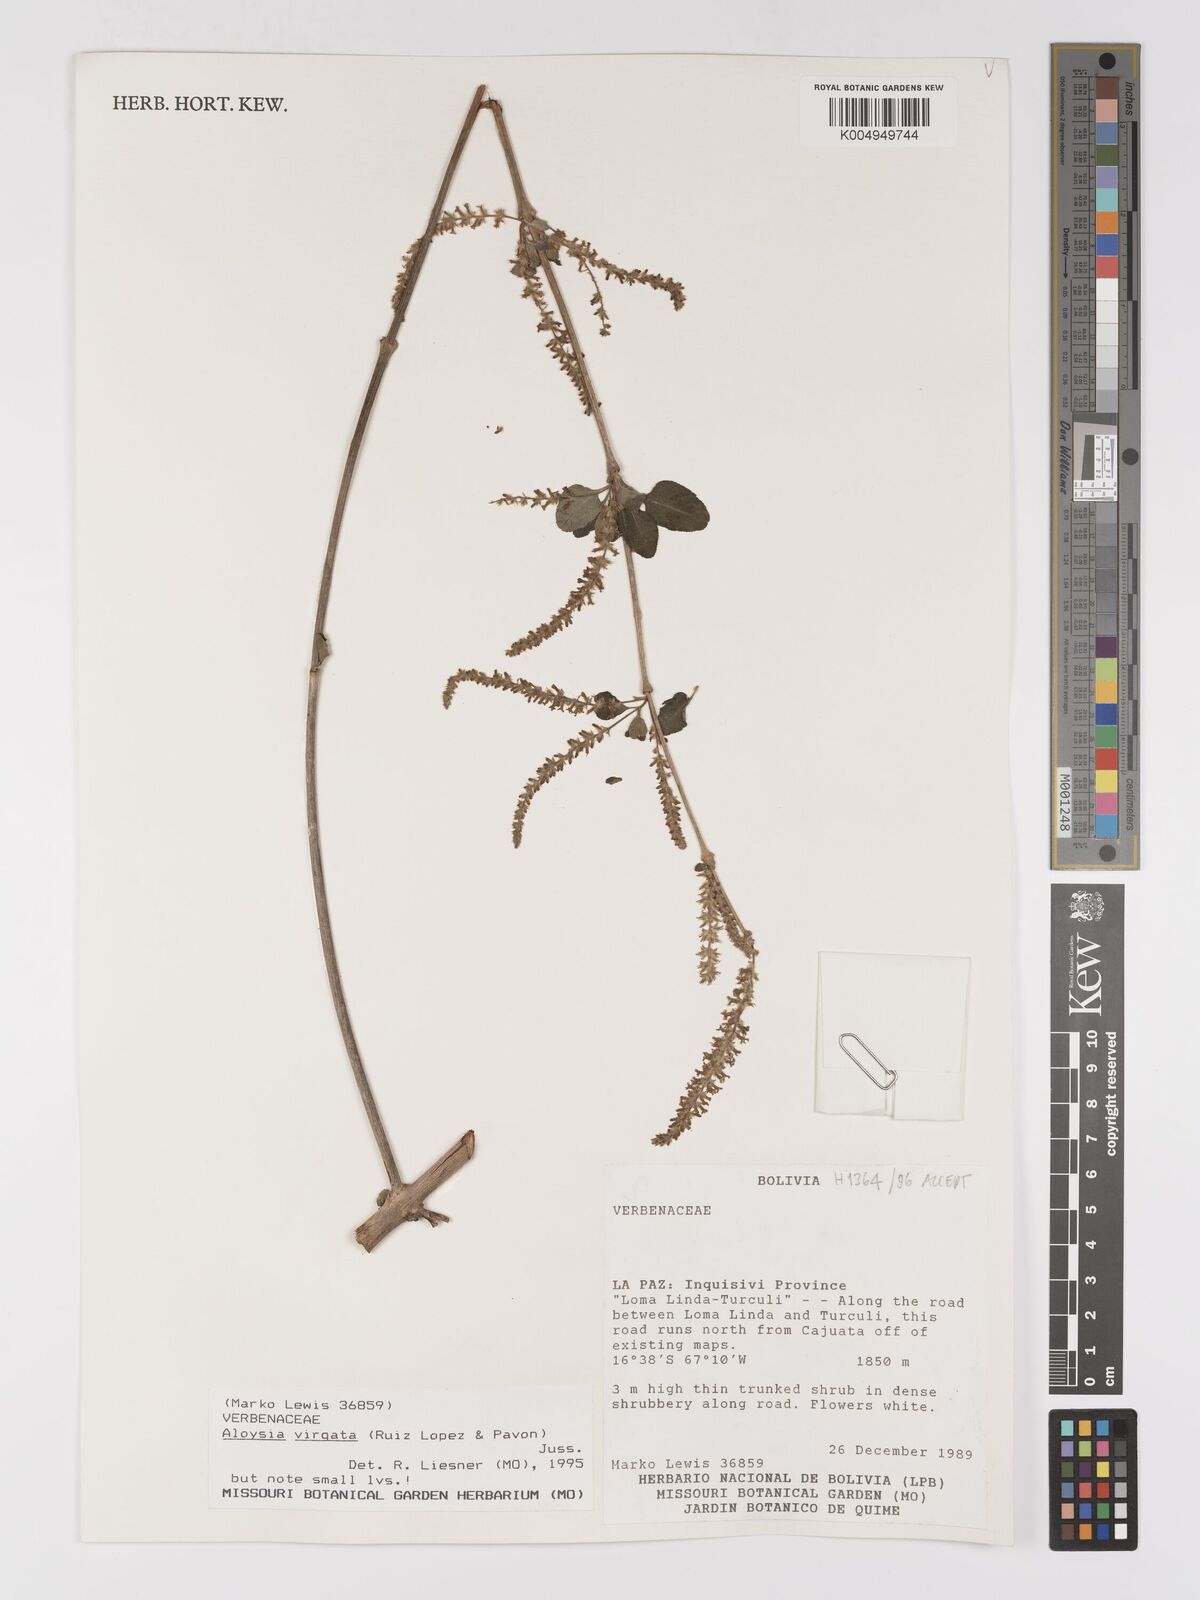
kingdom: Plantae
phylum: Tracheophyta
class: Magnoliopsida
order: Lamiales
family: Verbenaceae
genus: Aloysia
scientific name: Aloysia virgata
